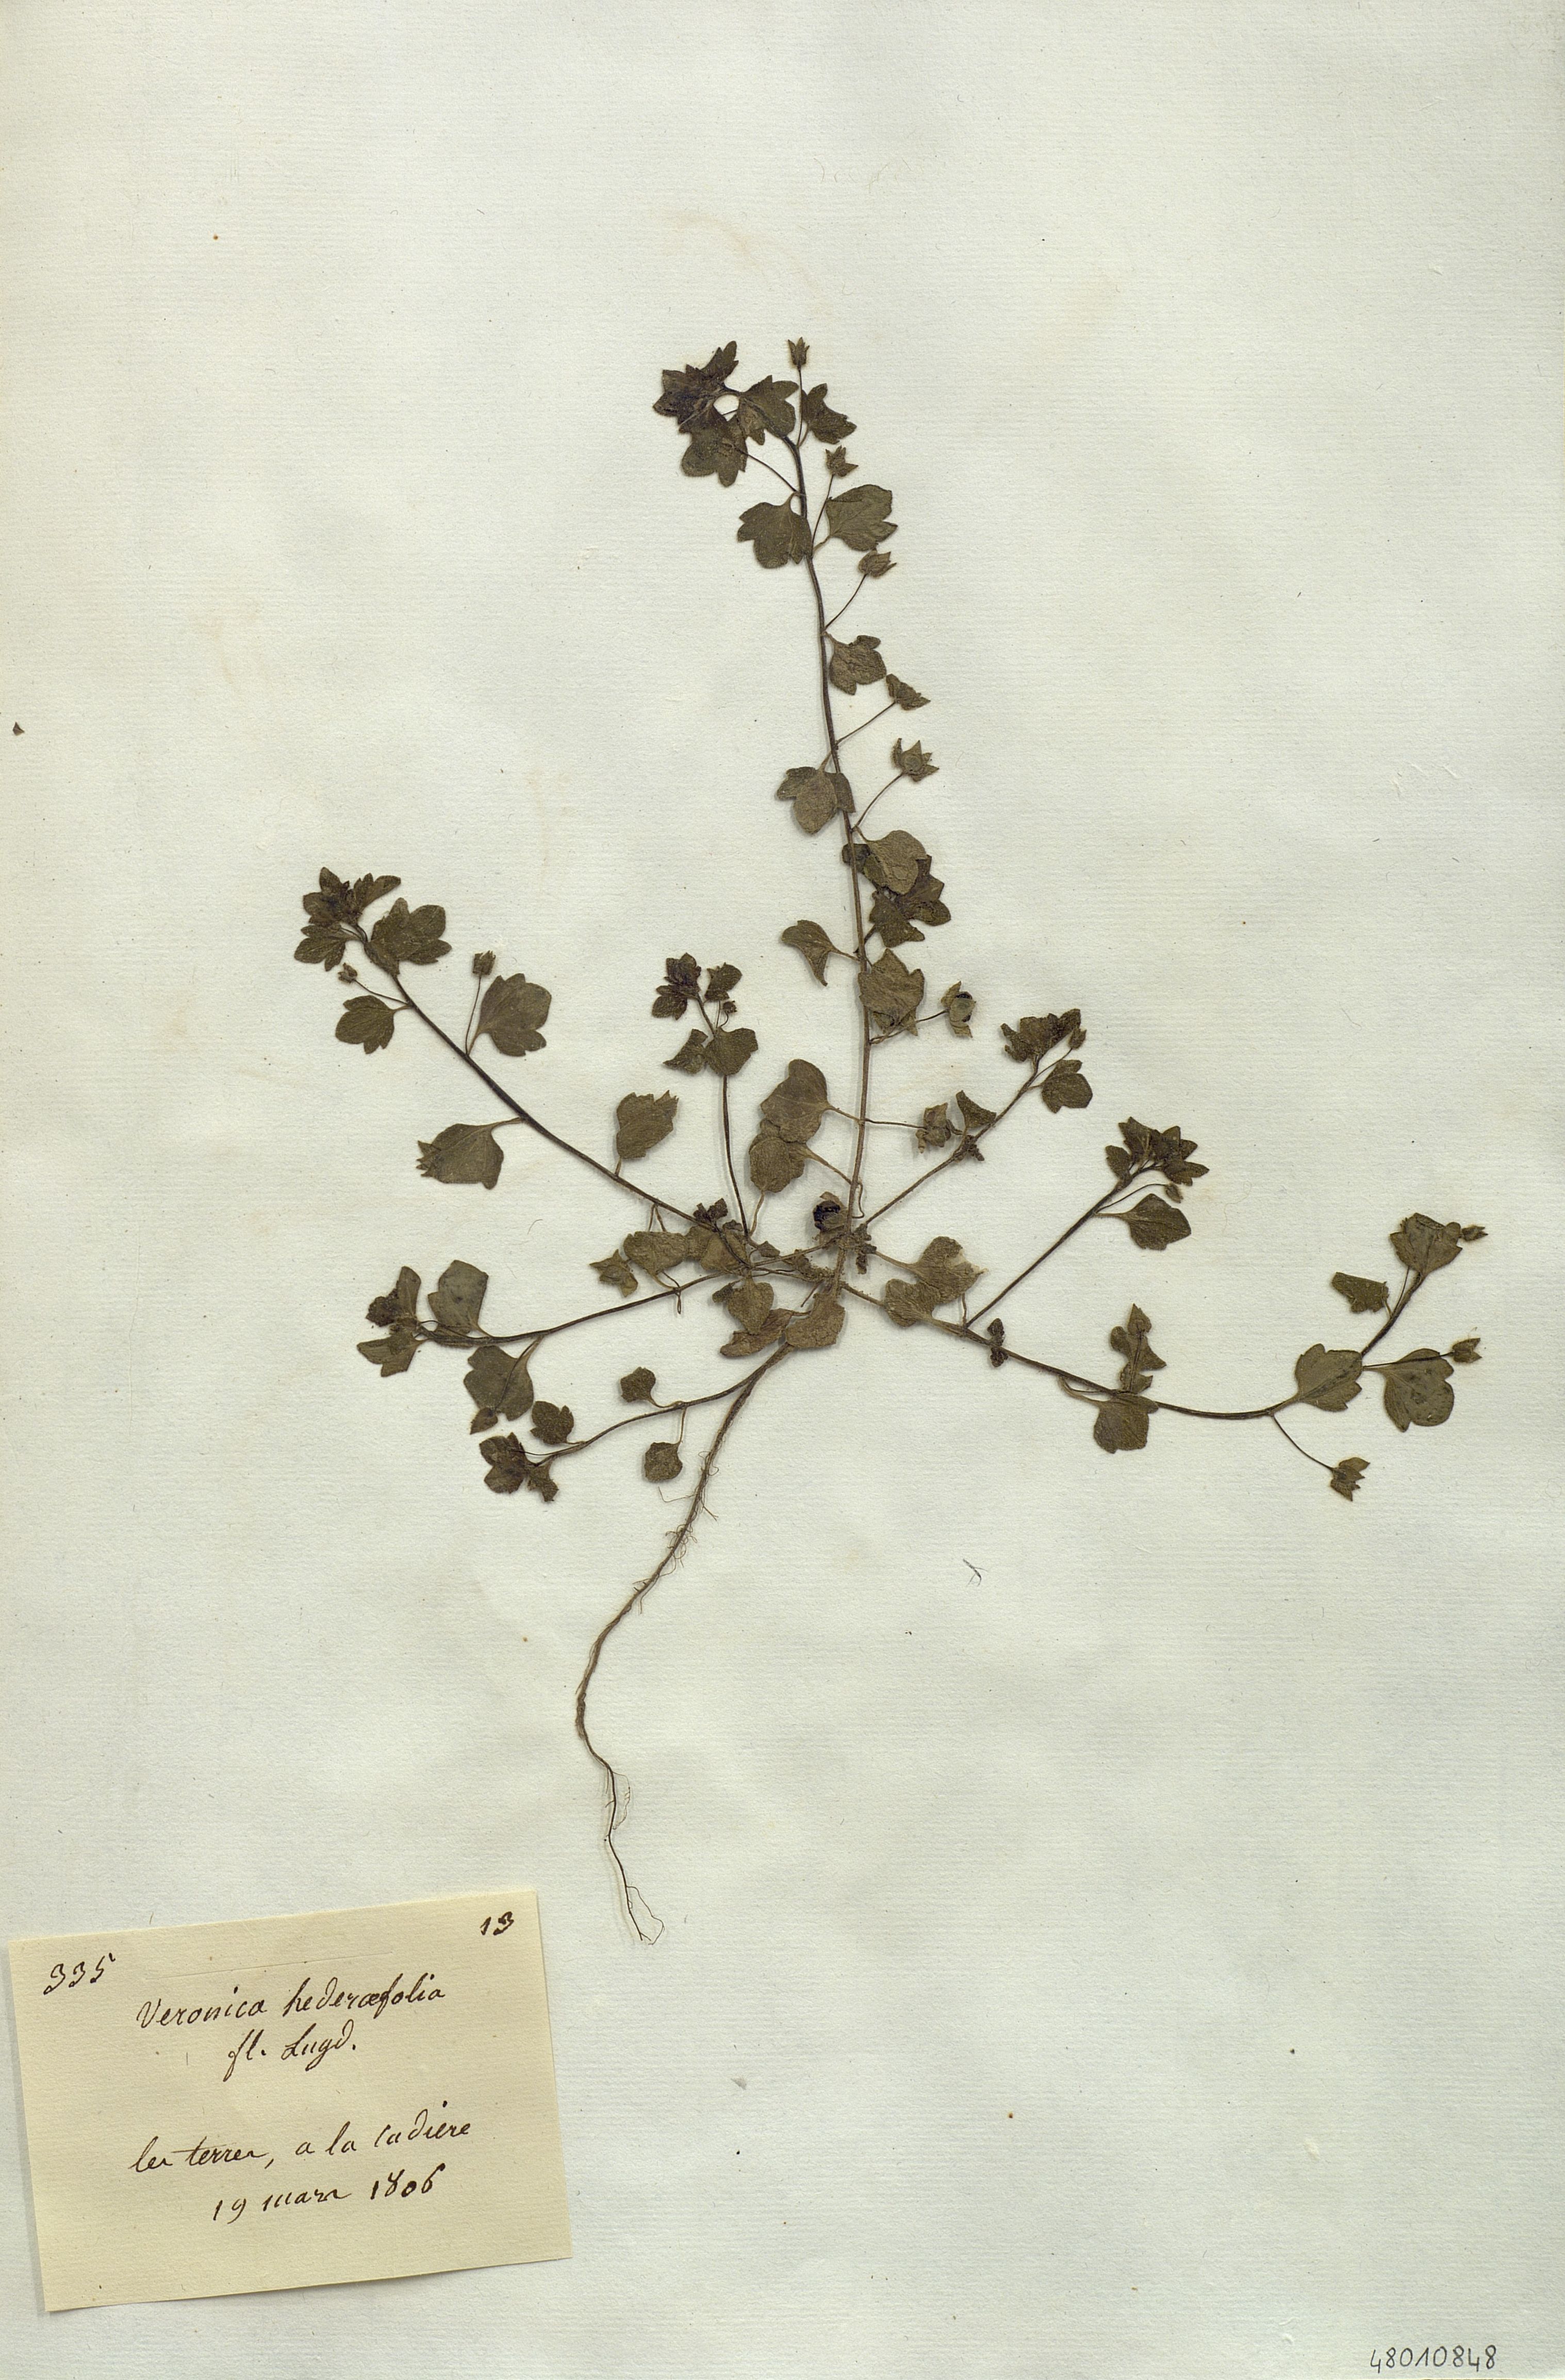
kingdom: Plantae
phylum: Tracheophyta
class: Magnoliopsida
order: Lamiales
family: Plantaginaceae
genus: Veronica
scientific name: Veronica hederifolia
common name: Ivy-leaved speedwell
